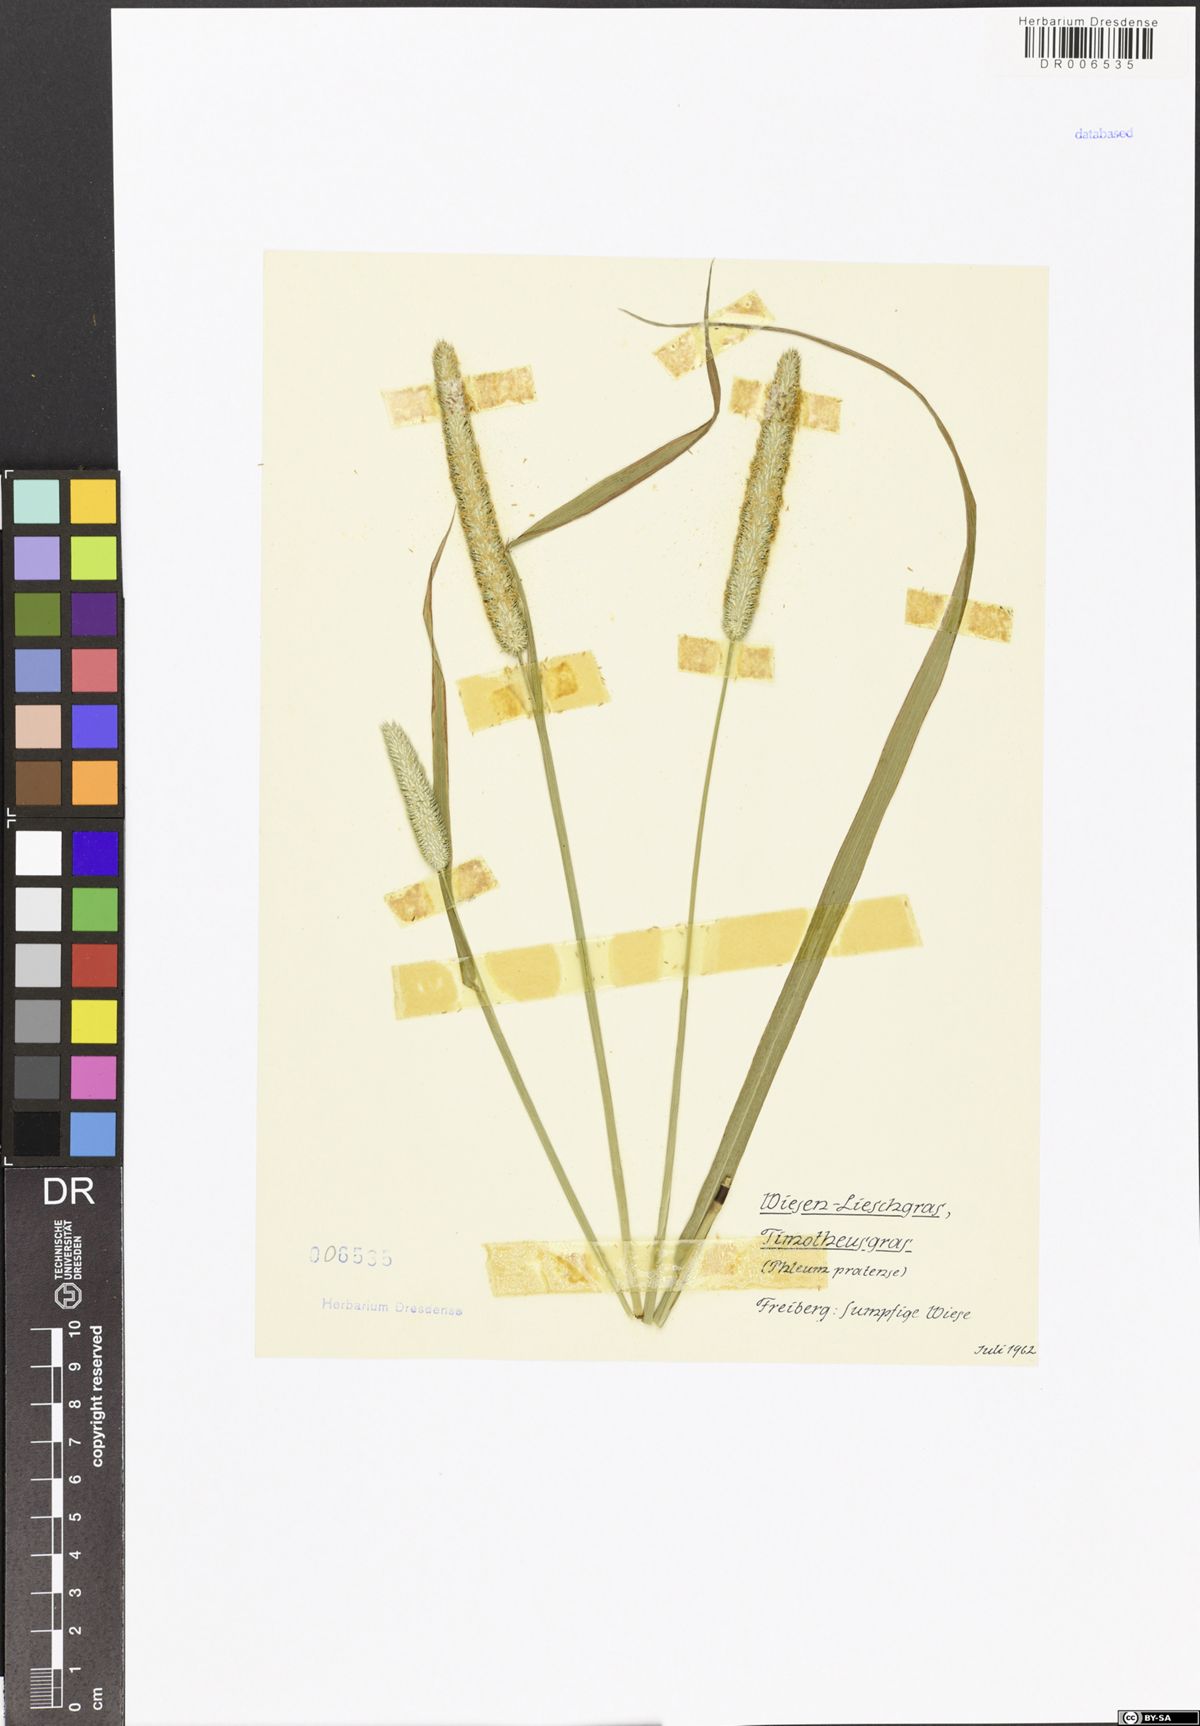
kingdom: Plantae
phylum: Tracheophyta
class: Liliopsida
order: Poales
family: Poaceae
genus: Phleum
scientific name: Phleum pratense
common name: Timothy grass
